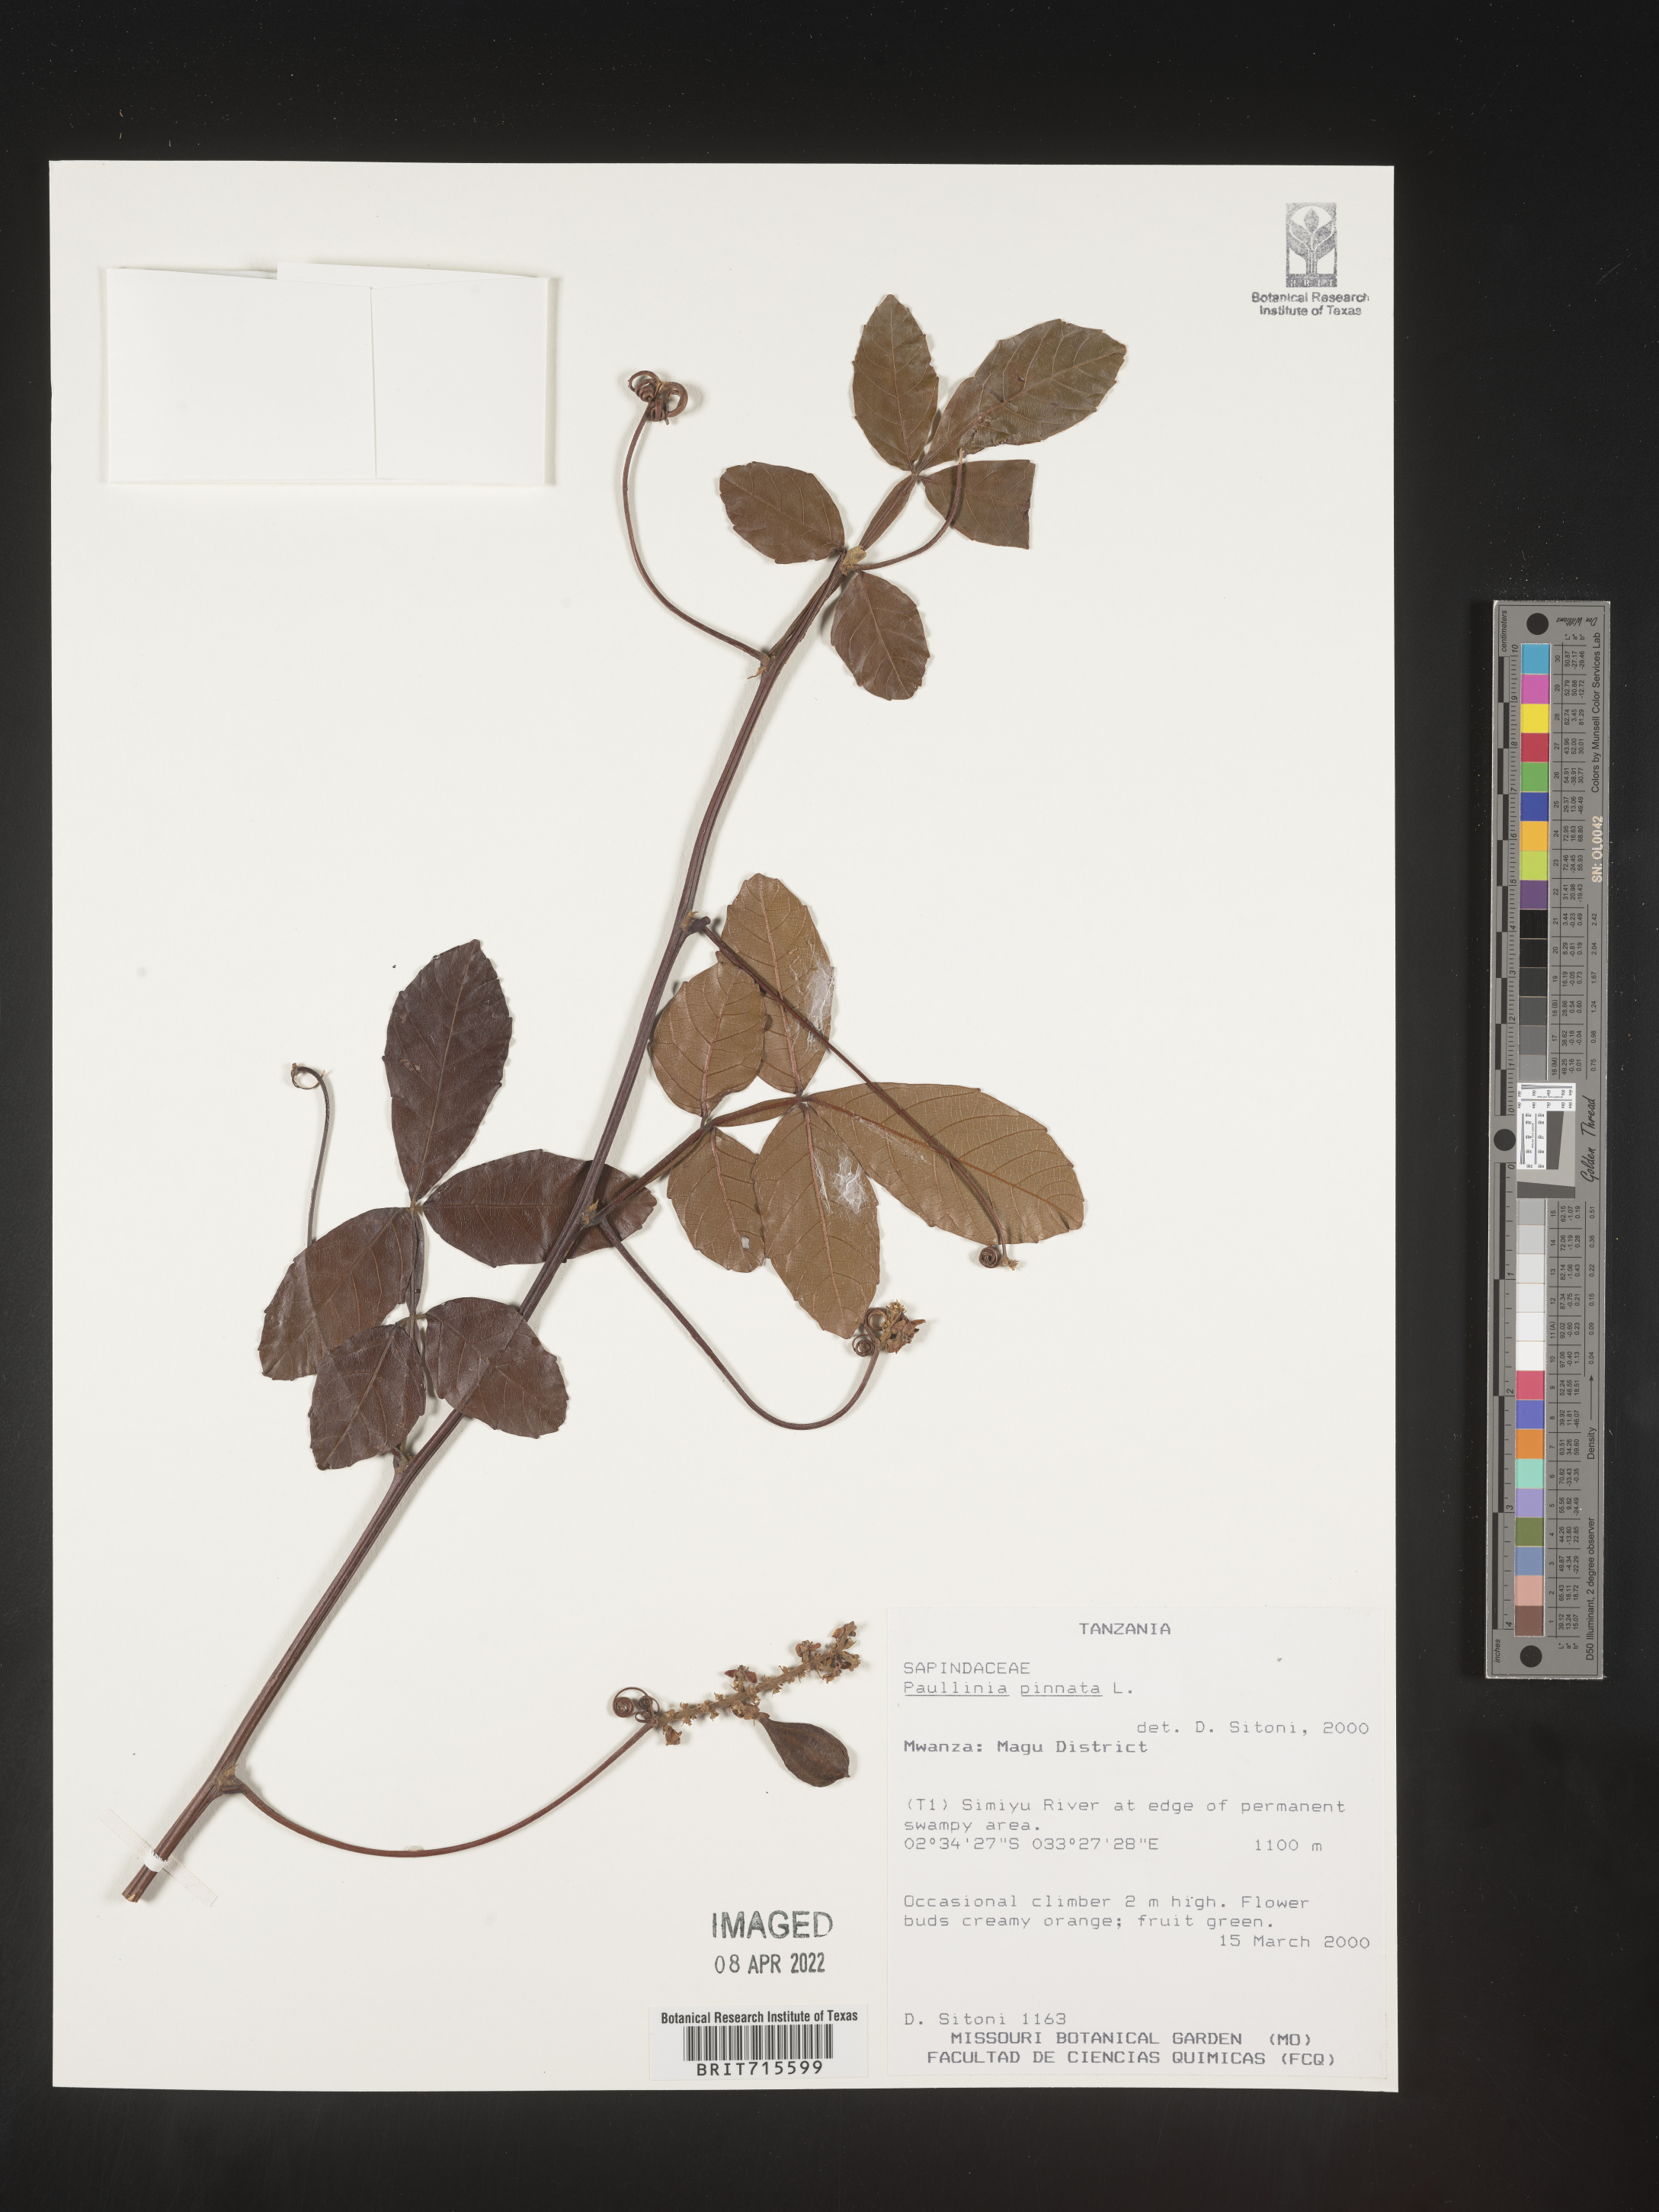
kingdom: Plantae
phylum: Tracheophyta
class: Magnoliopsida
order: Sapindales
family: Sapindaceae
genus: Paullinia
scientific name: Paullinia
